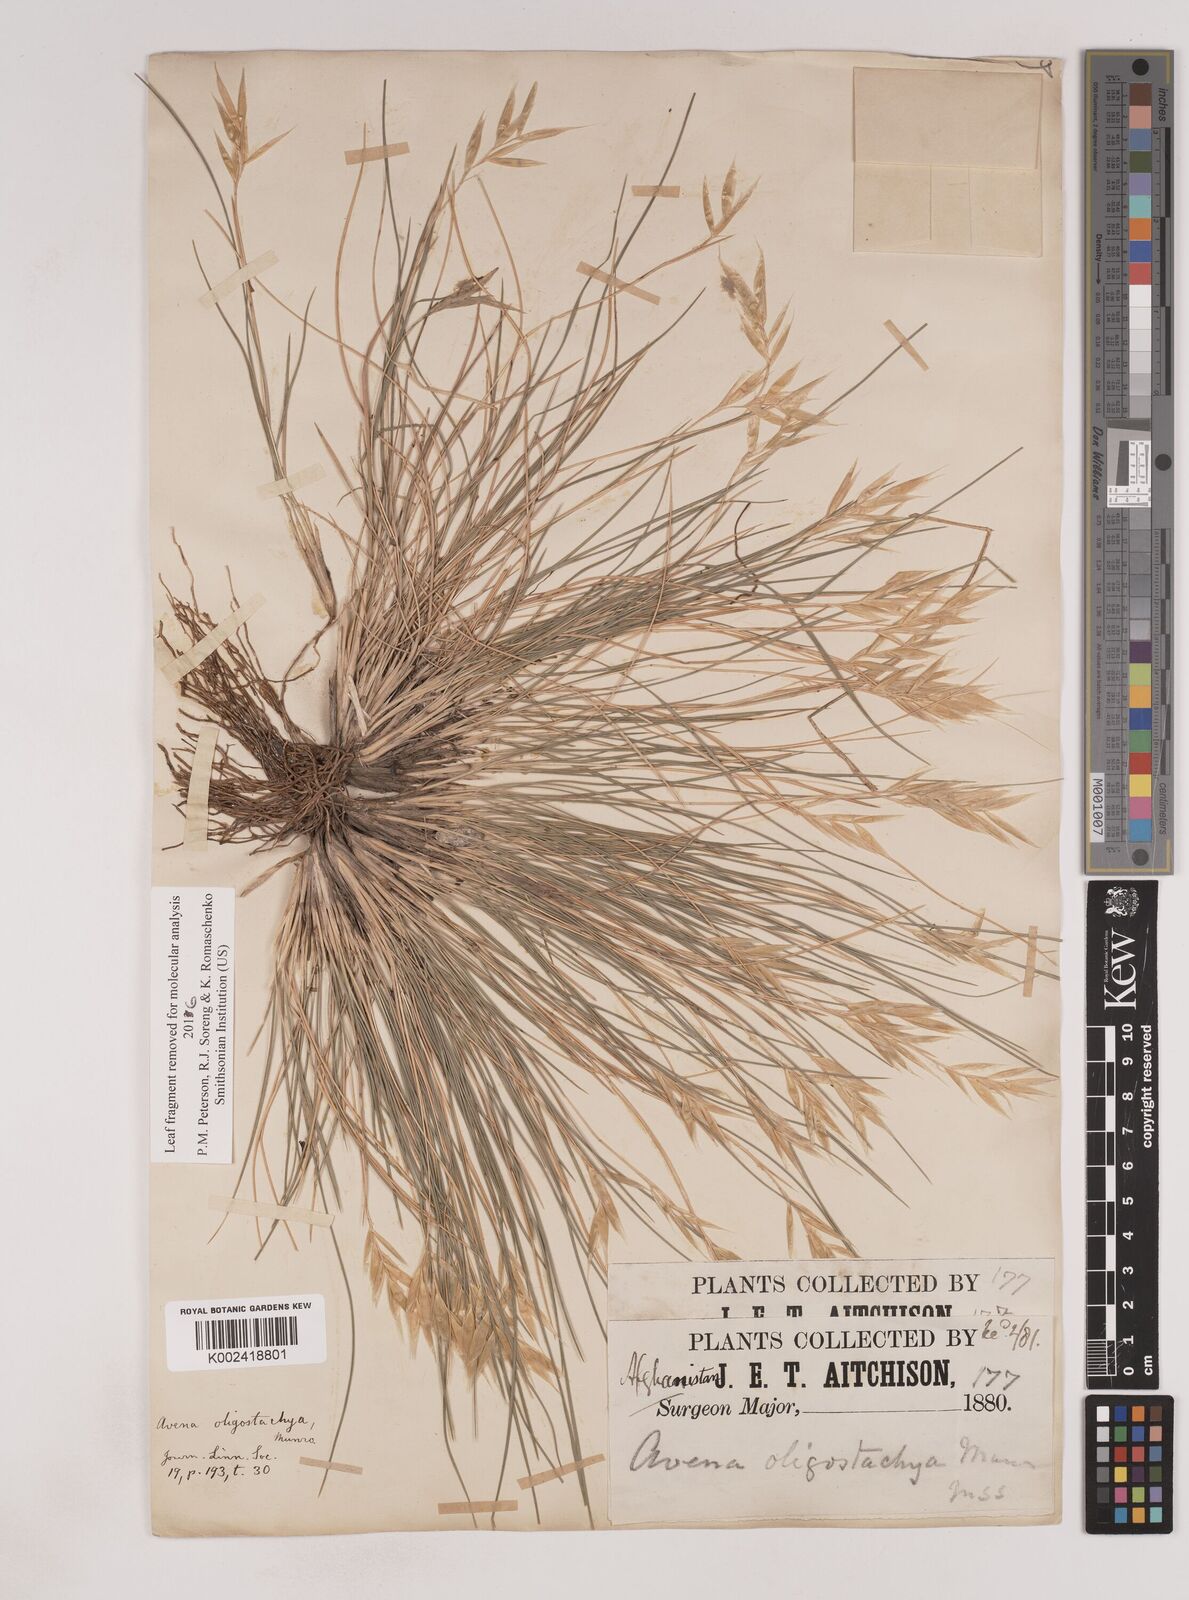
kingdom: Plantae
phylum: Tracheophyta
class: Liliopsida
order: Poales
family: Poaceae
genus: Duthiea
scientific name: Duthiea oligostachya
